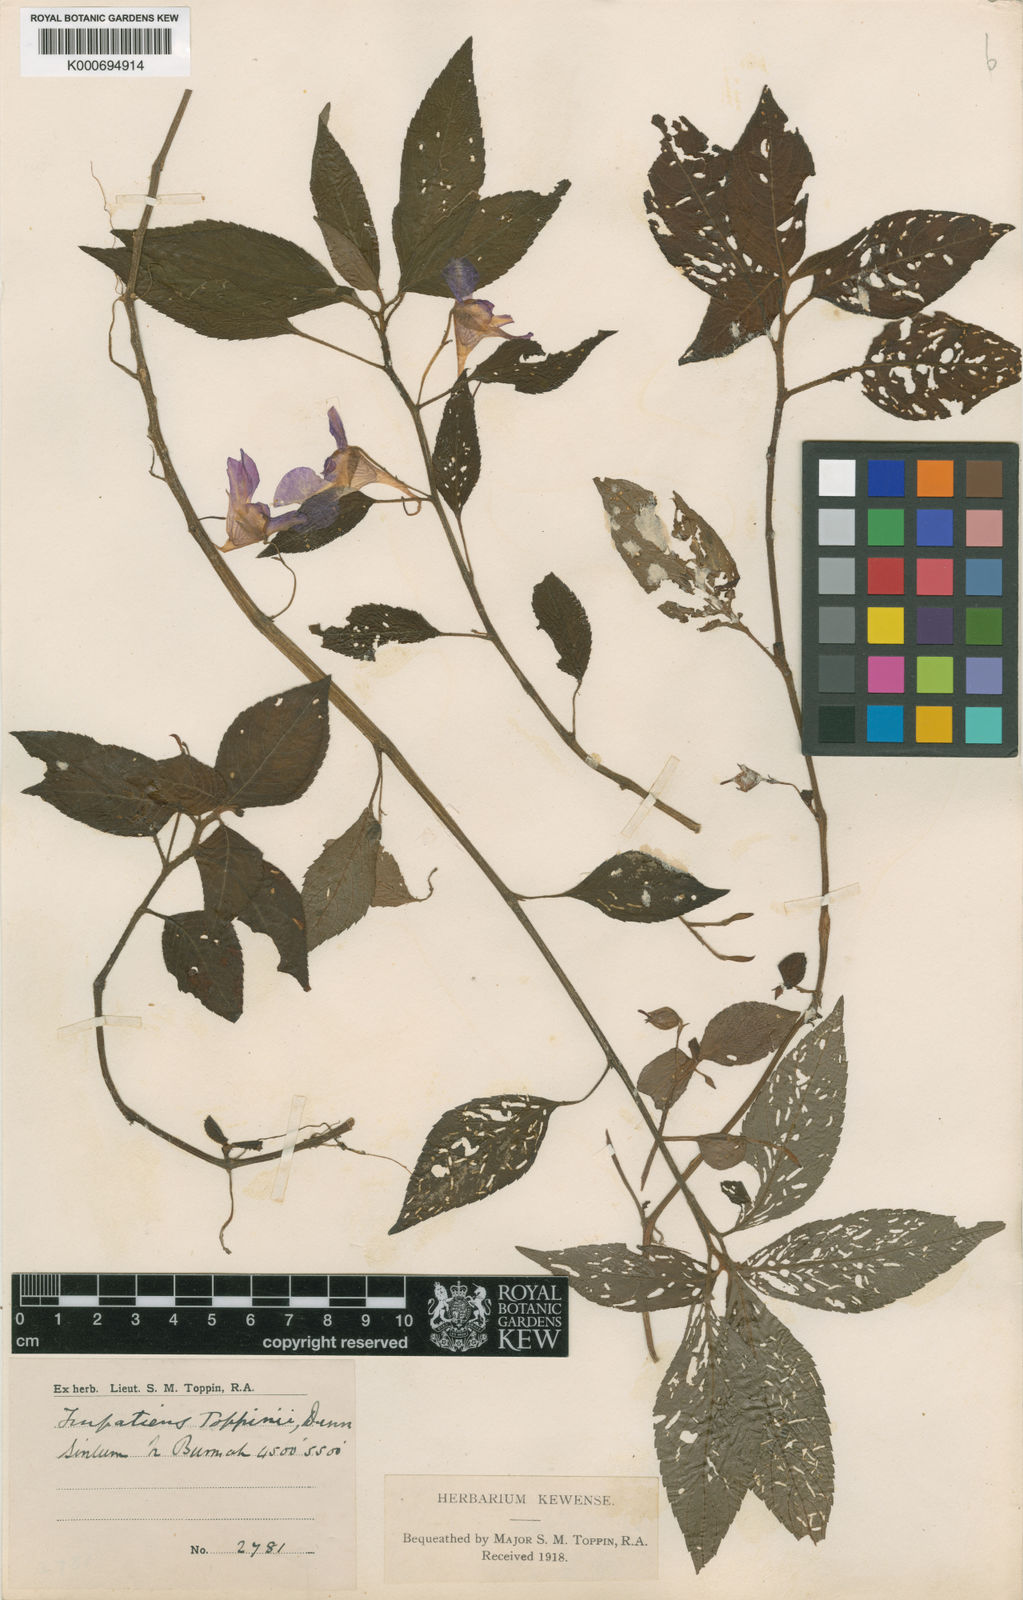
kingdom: Plantae
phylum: Tracheophyta
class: Magnoliopsida
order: Ericales
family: Balsaminaceae
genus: Impatiens
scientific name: Impatiens toppinii
